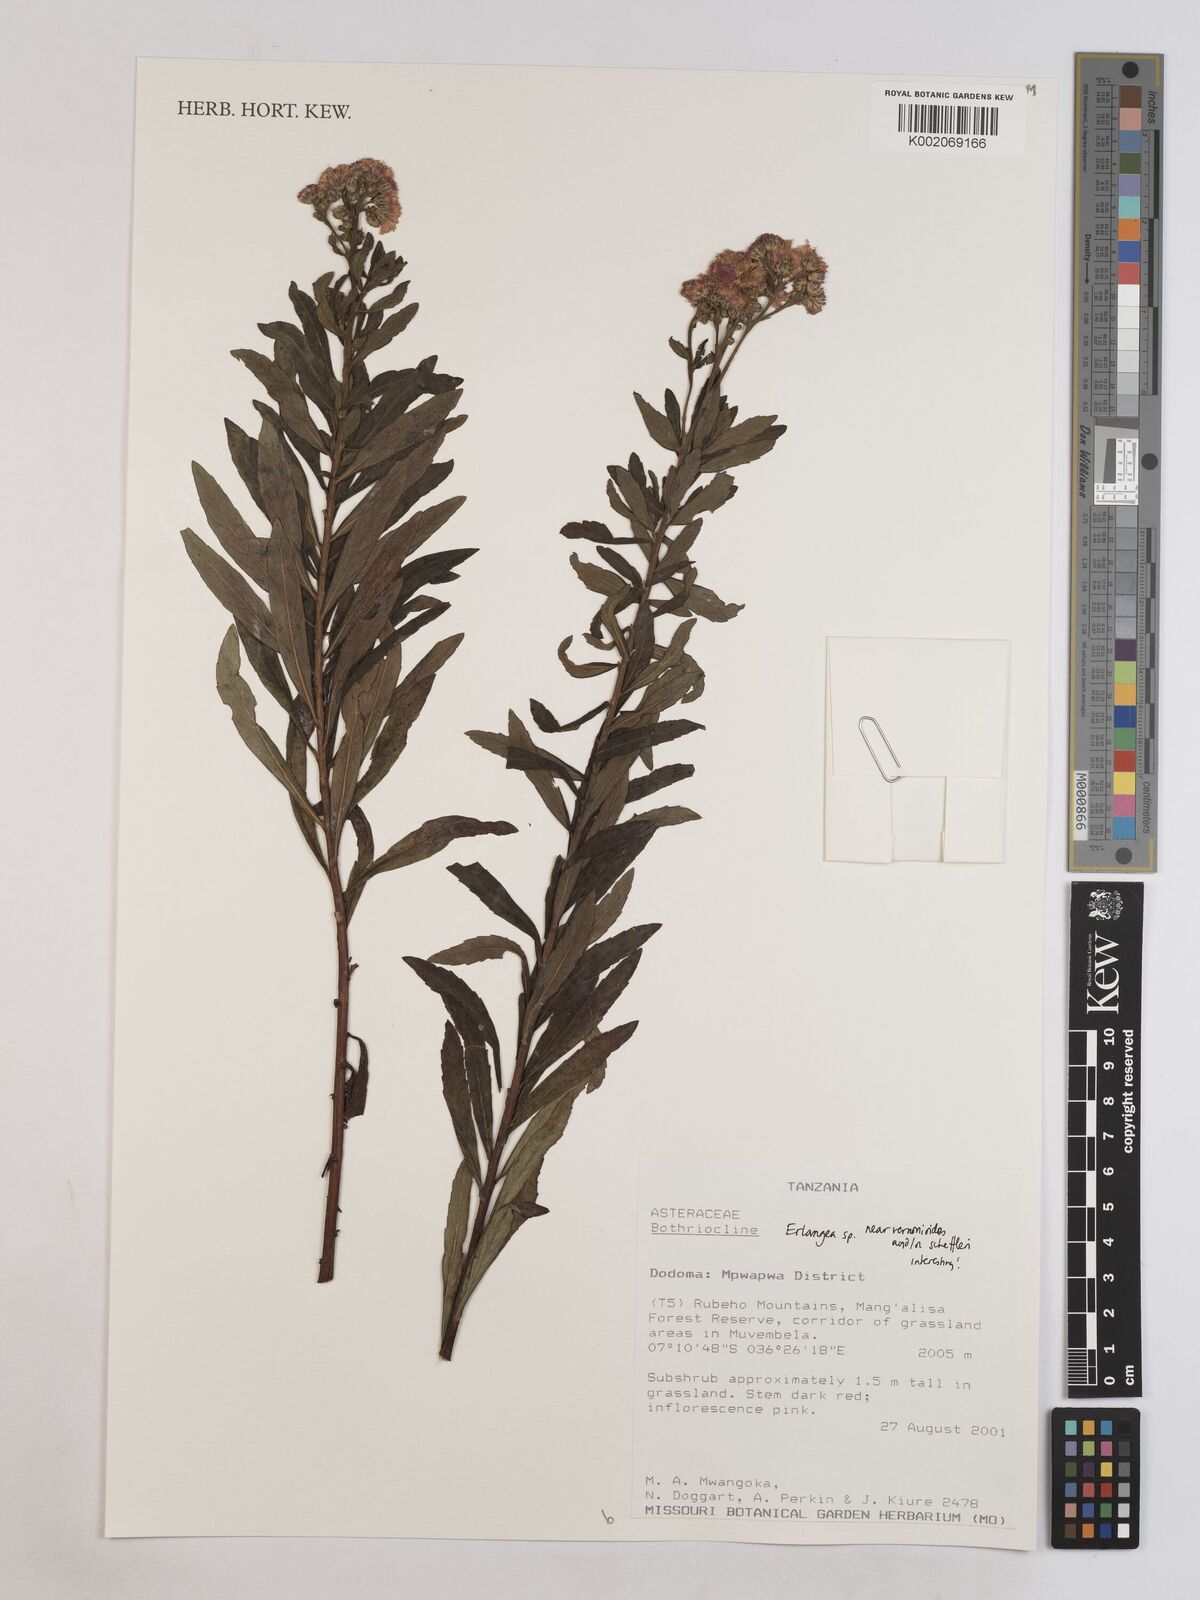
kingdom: Plantae
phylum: Tracheophyta
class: Magnoliopsida
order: Asterales
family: Asteraceae
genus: Erlangea
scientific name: Erlangea
